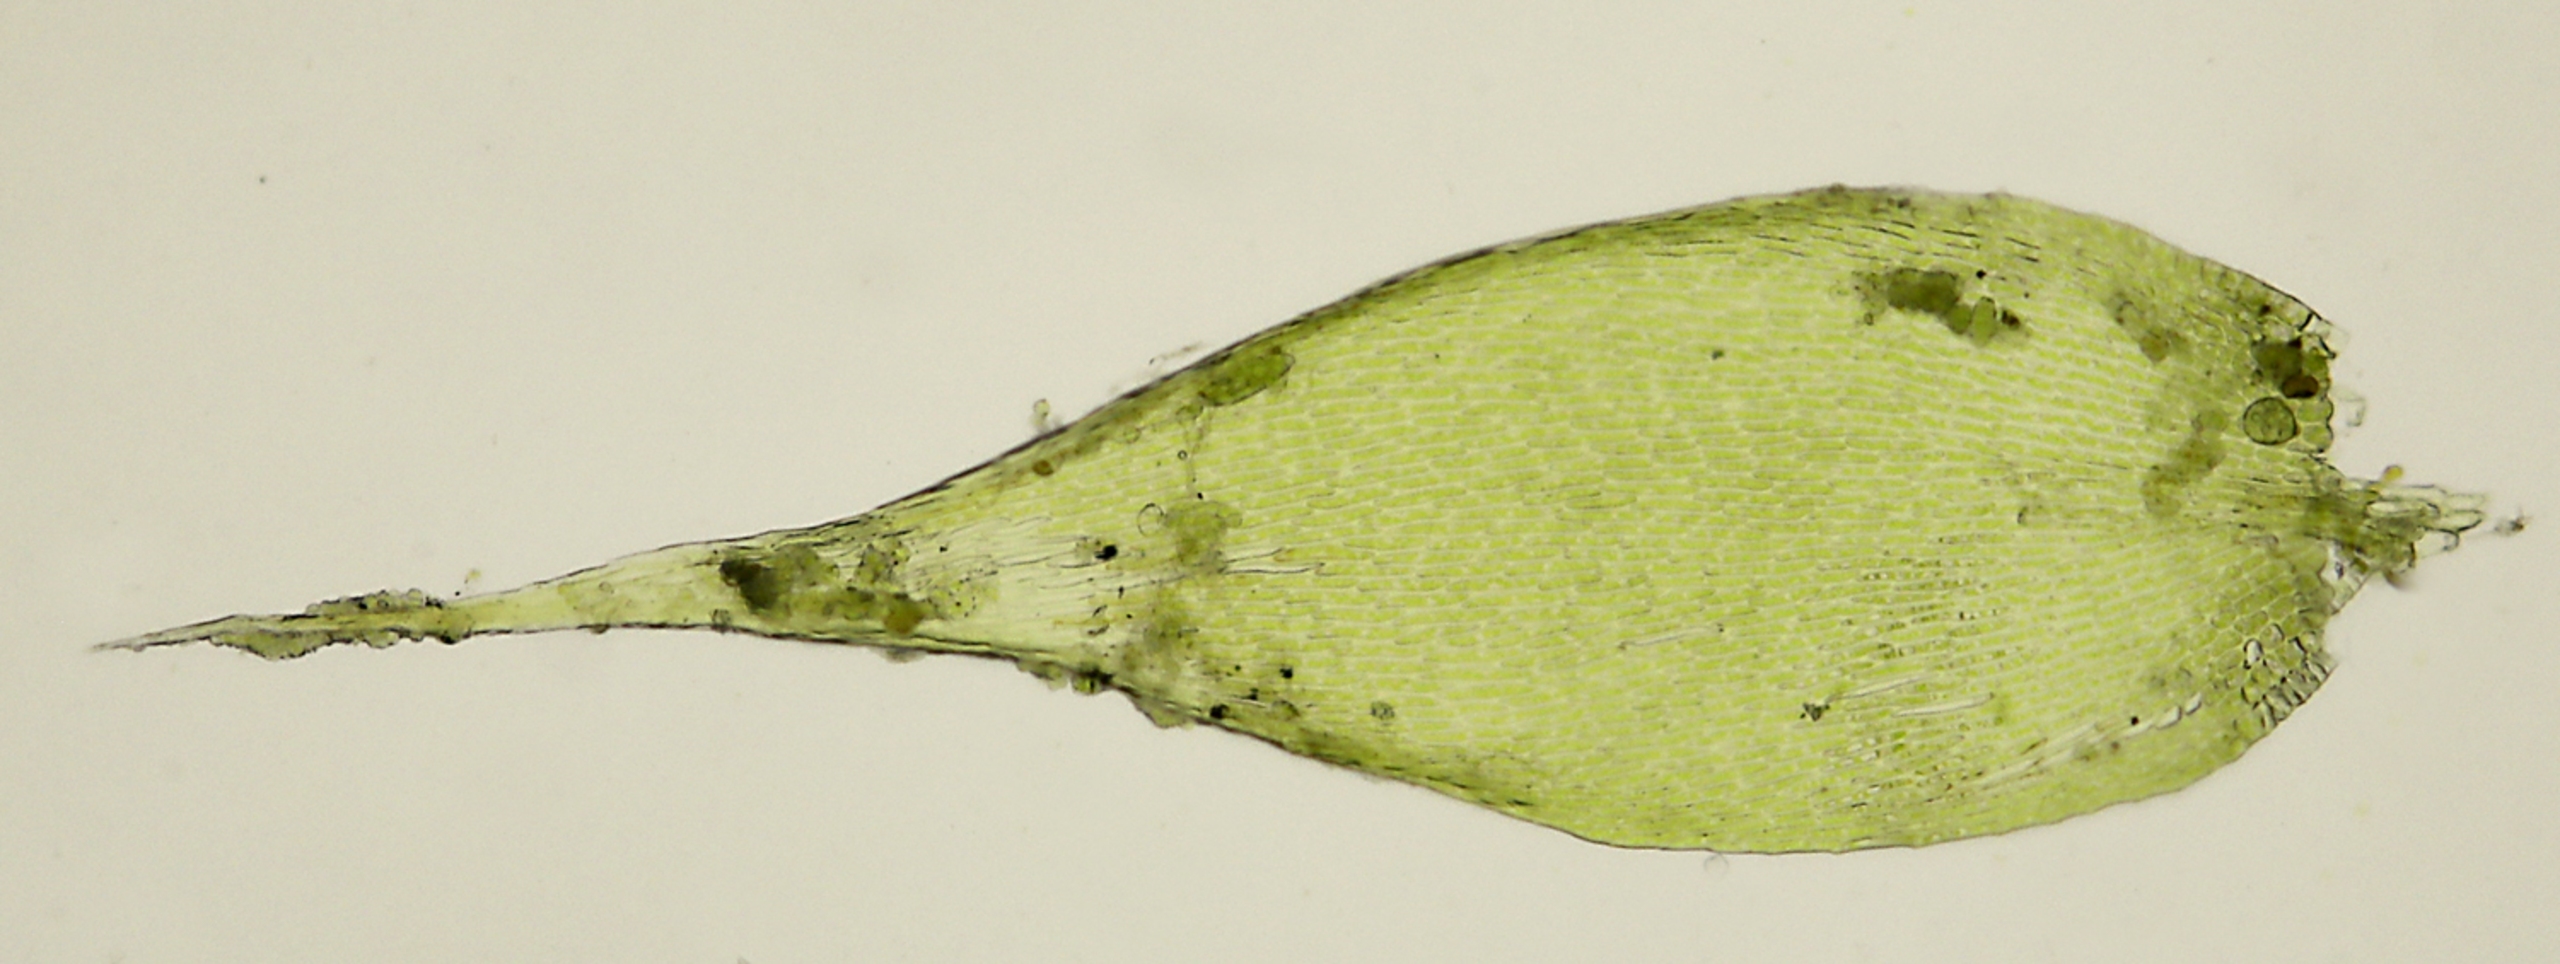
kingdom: Plantae
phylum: Bryophyta
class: Bryopsida
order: Hypnales
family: Pylaisiaceae
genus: Pylaisia
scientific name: Pylaisia polyantha
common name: Mangefrugtet aspemos
